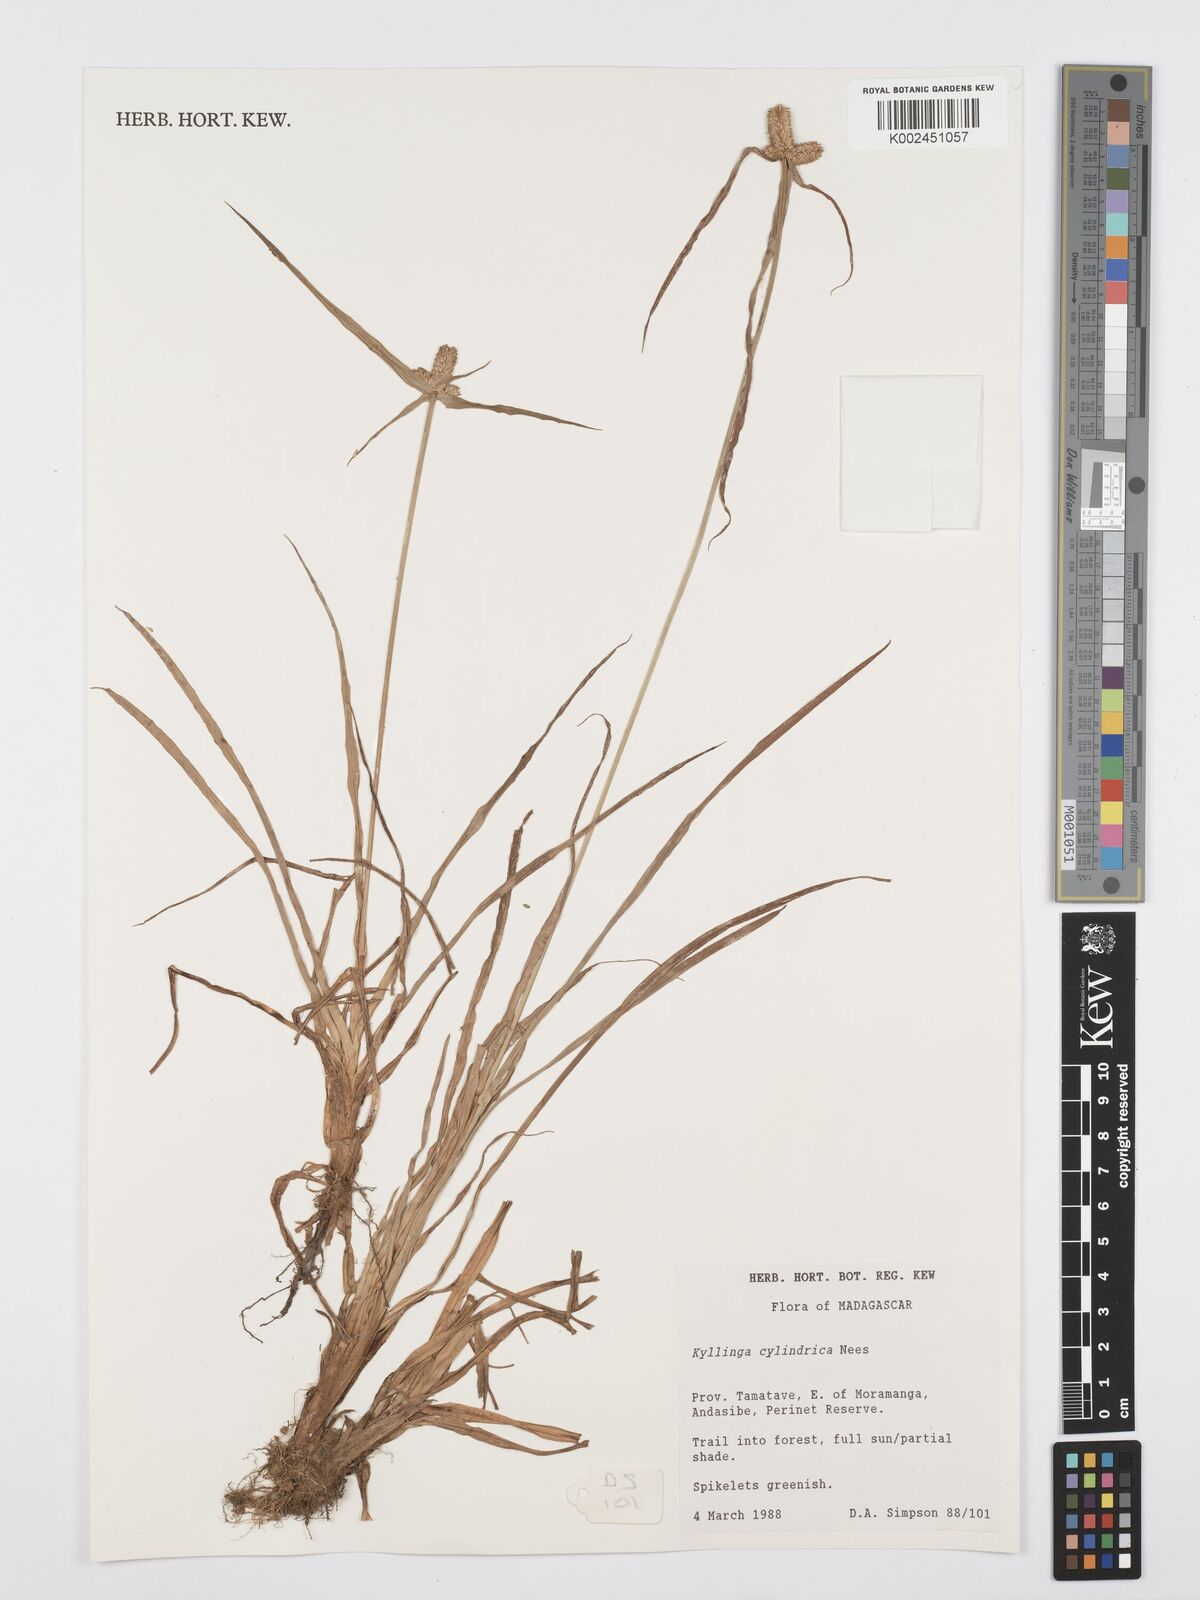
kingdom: Plantae
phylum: Tracheophyta
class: Liliopsida
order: Poales
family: Cyperaceae
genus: Cyperus
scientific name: Cyperus
